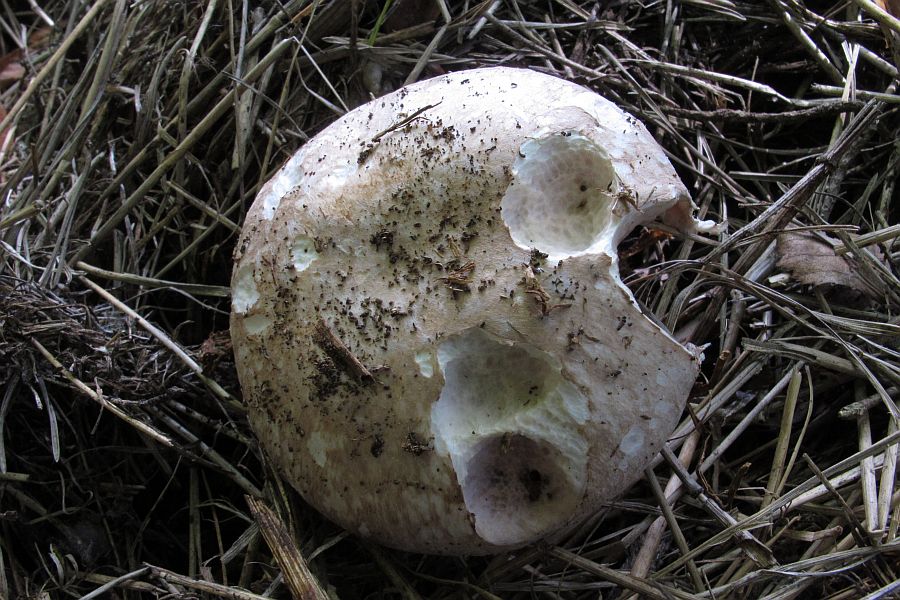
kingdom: Fungi
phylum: Basidiomycota
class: Agaricomycetes
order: Agaricales
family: Agaricaceae
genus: Agaricus
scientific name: Agaricus bisporus
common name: have-champignon
